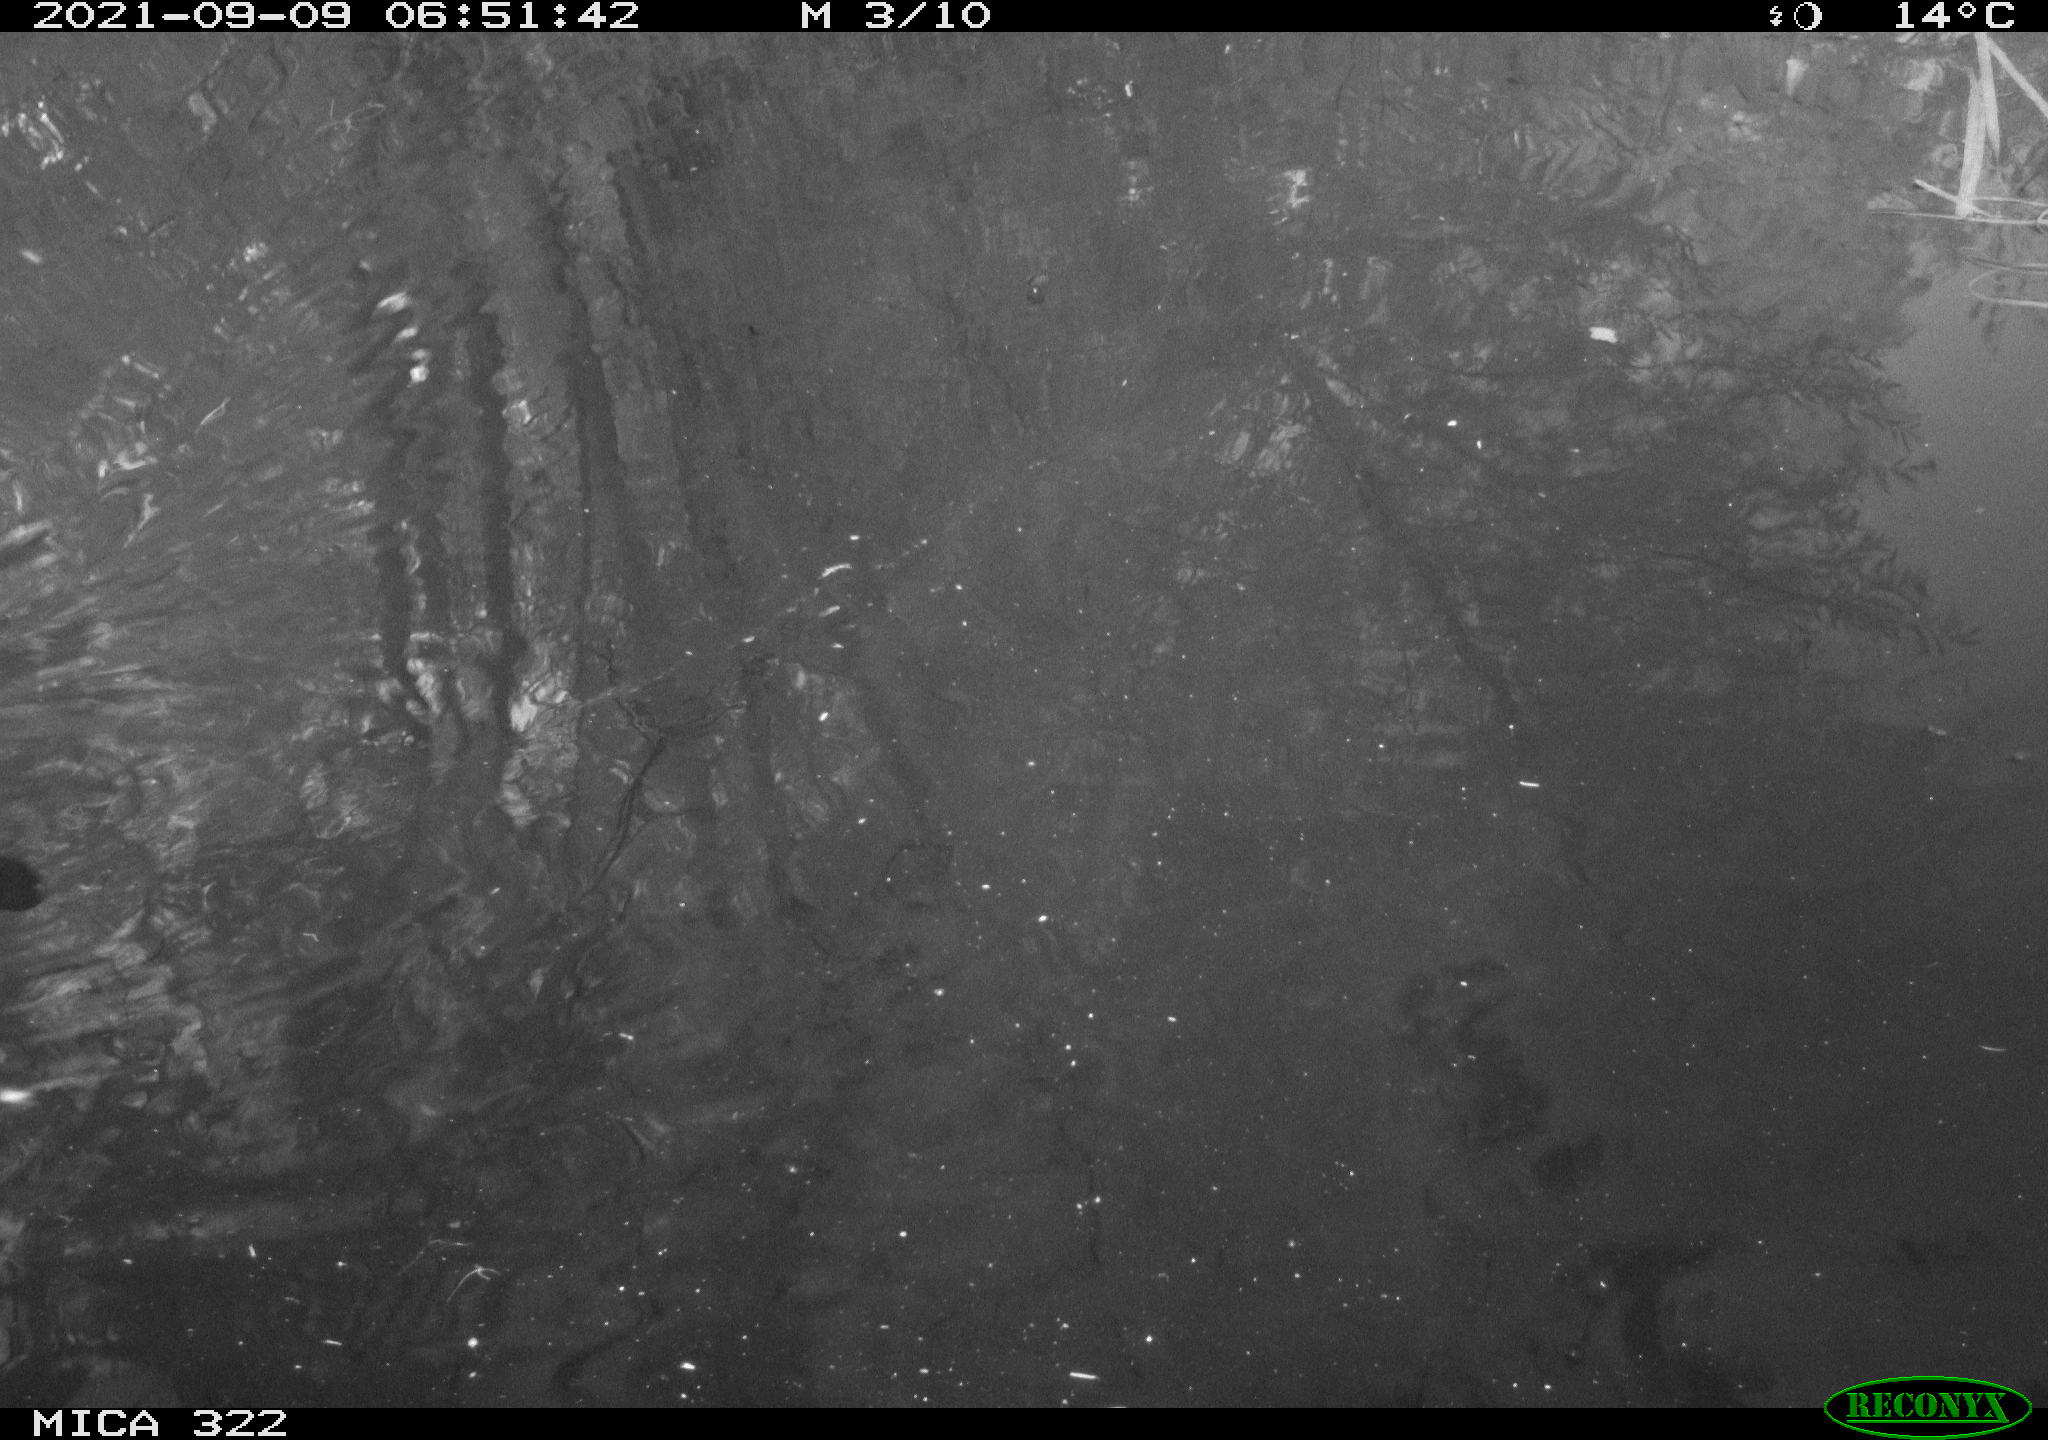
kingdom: Animalia
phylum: Chordata
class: Aves
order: Gruiformes
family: Rallidae
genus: Gallinula
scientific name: Gallinula chloropus
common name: Common moorhen
